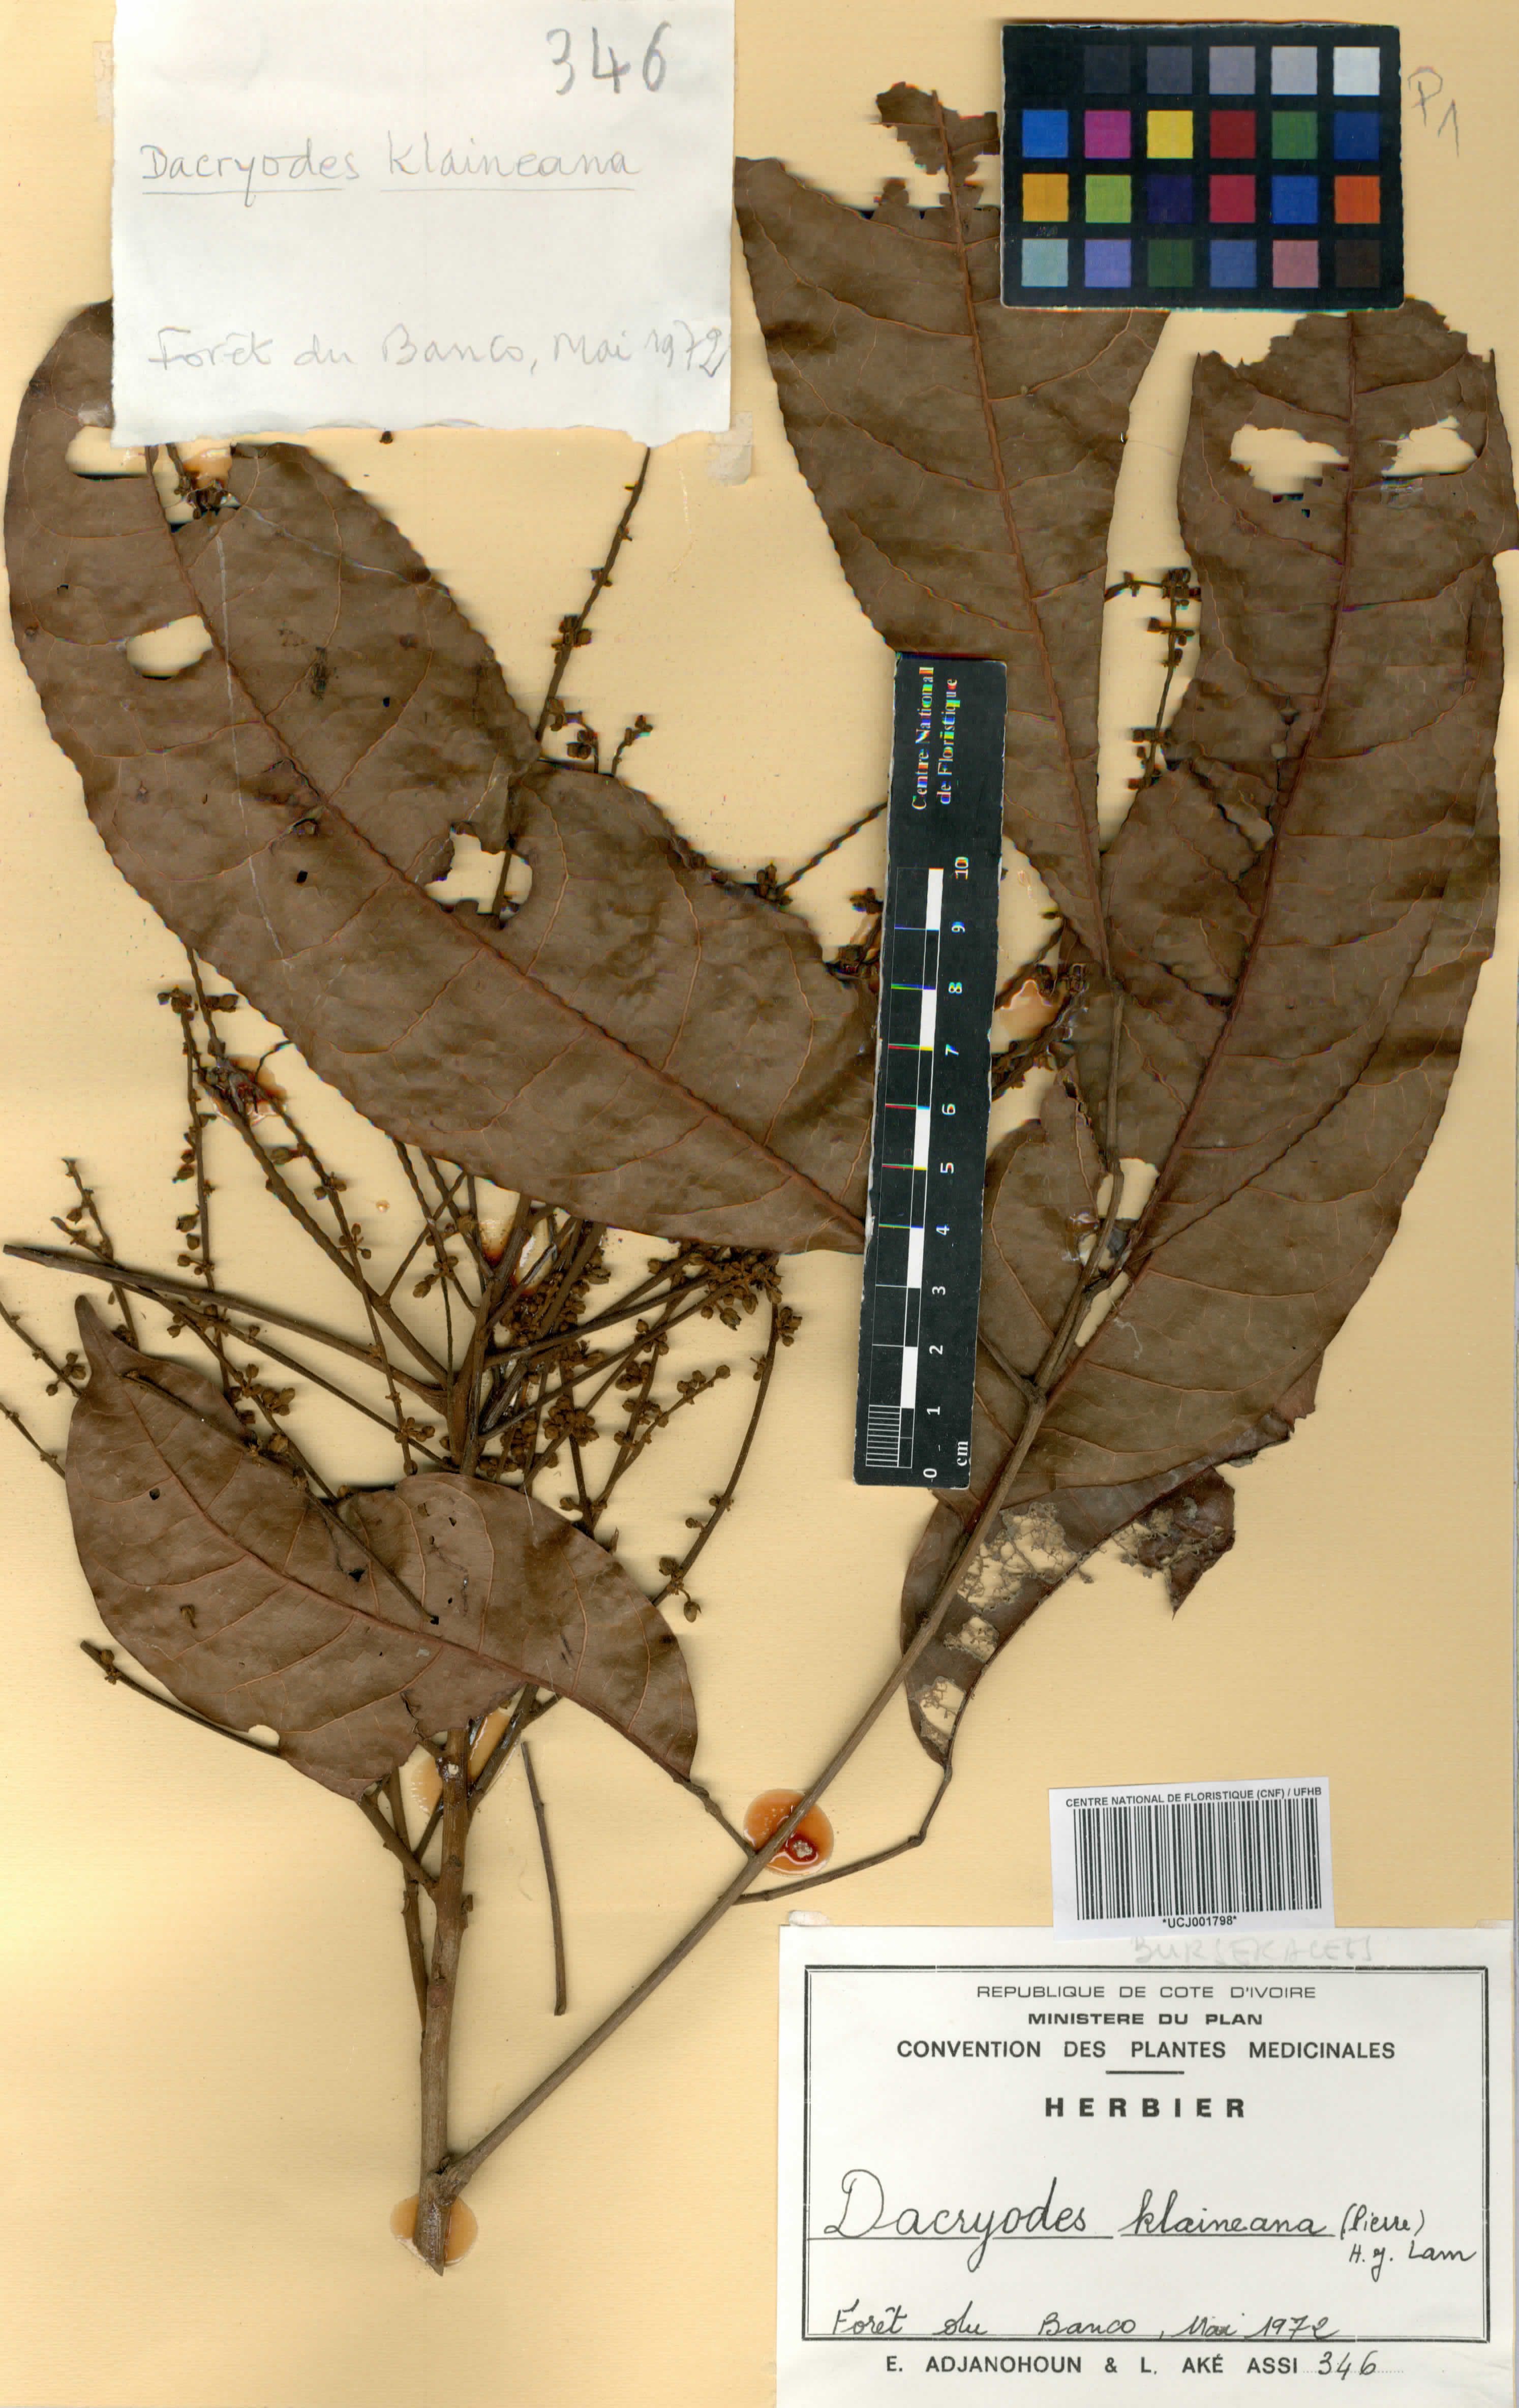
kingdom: Plantae
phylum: Tracheophyta
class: Magnoliopsida
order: Sapindales
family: Burseraceae
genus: Pachylobus
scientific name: Pachylobus klaineana
